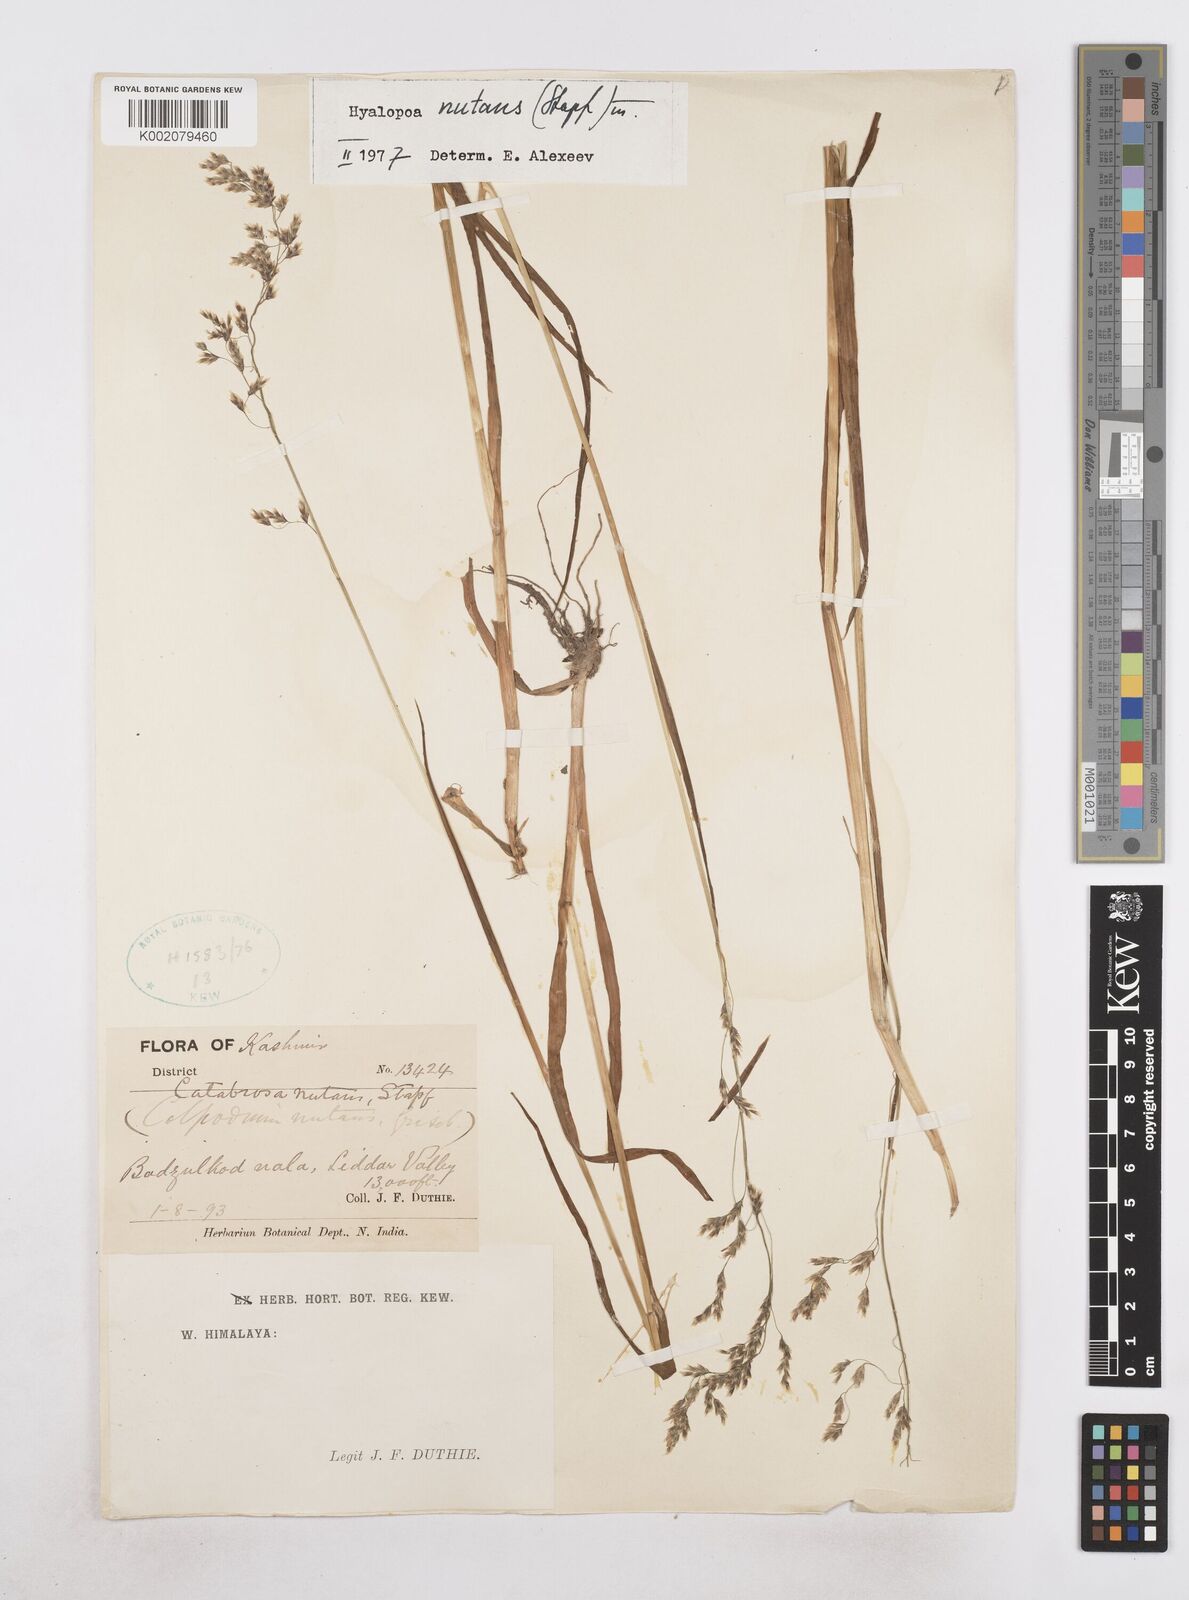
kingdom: Plantae
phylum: Tracheophyta
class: Liliopsida
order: Poales
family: Poaceae
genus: Hyalopoa
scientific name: Hyalopoa nutans
